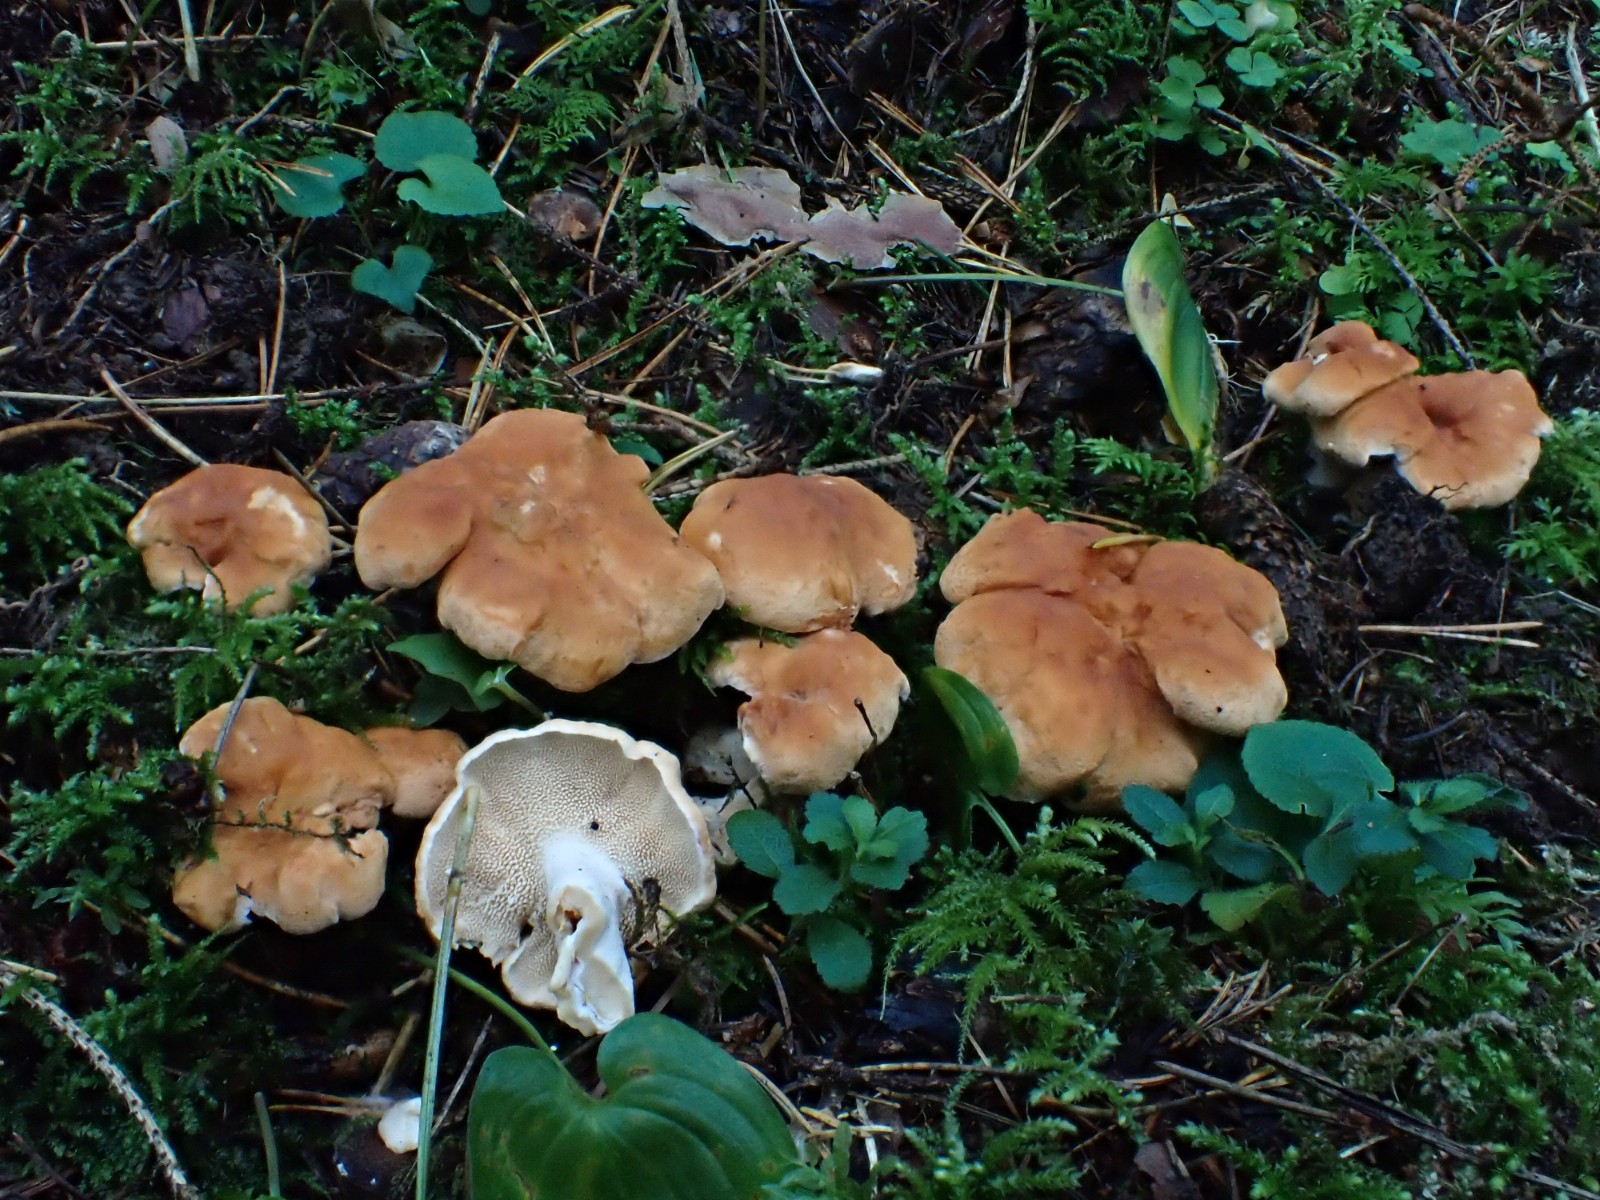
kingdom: Fungi
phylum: Basidiomycota
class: Agaricomycetes
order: Cantharellales
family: Hydnaceae
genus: Hydnum
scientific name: Hydnum mulsicolor
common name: mjødfarvet pigsvamp
